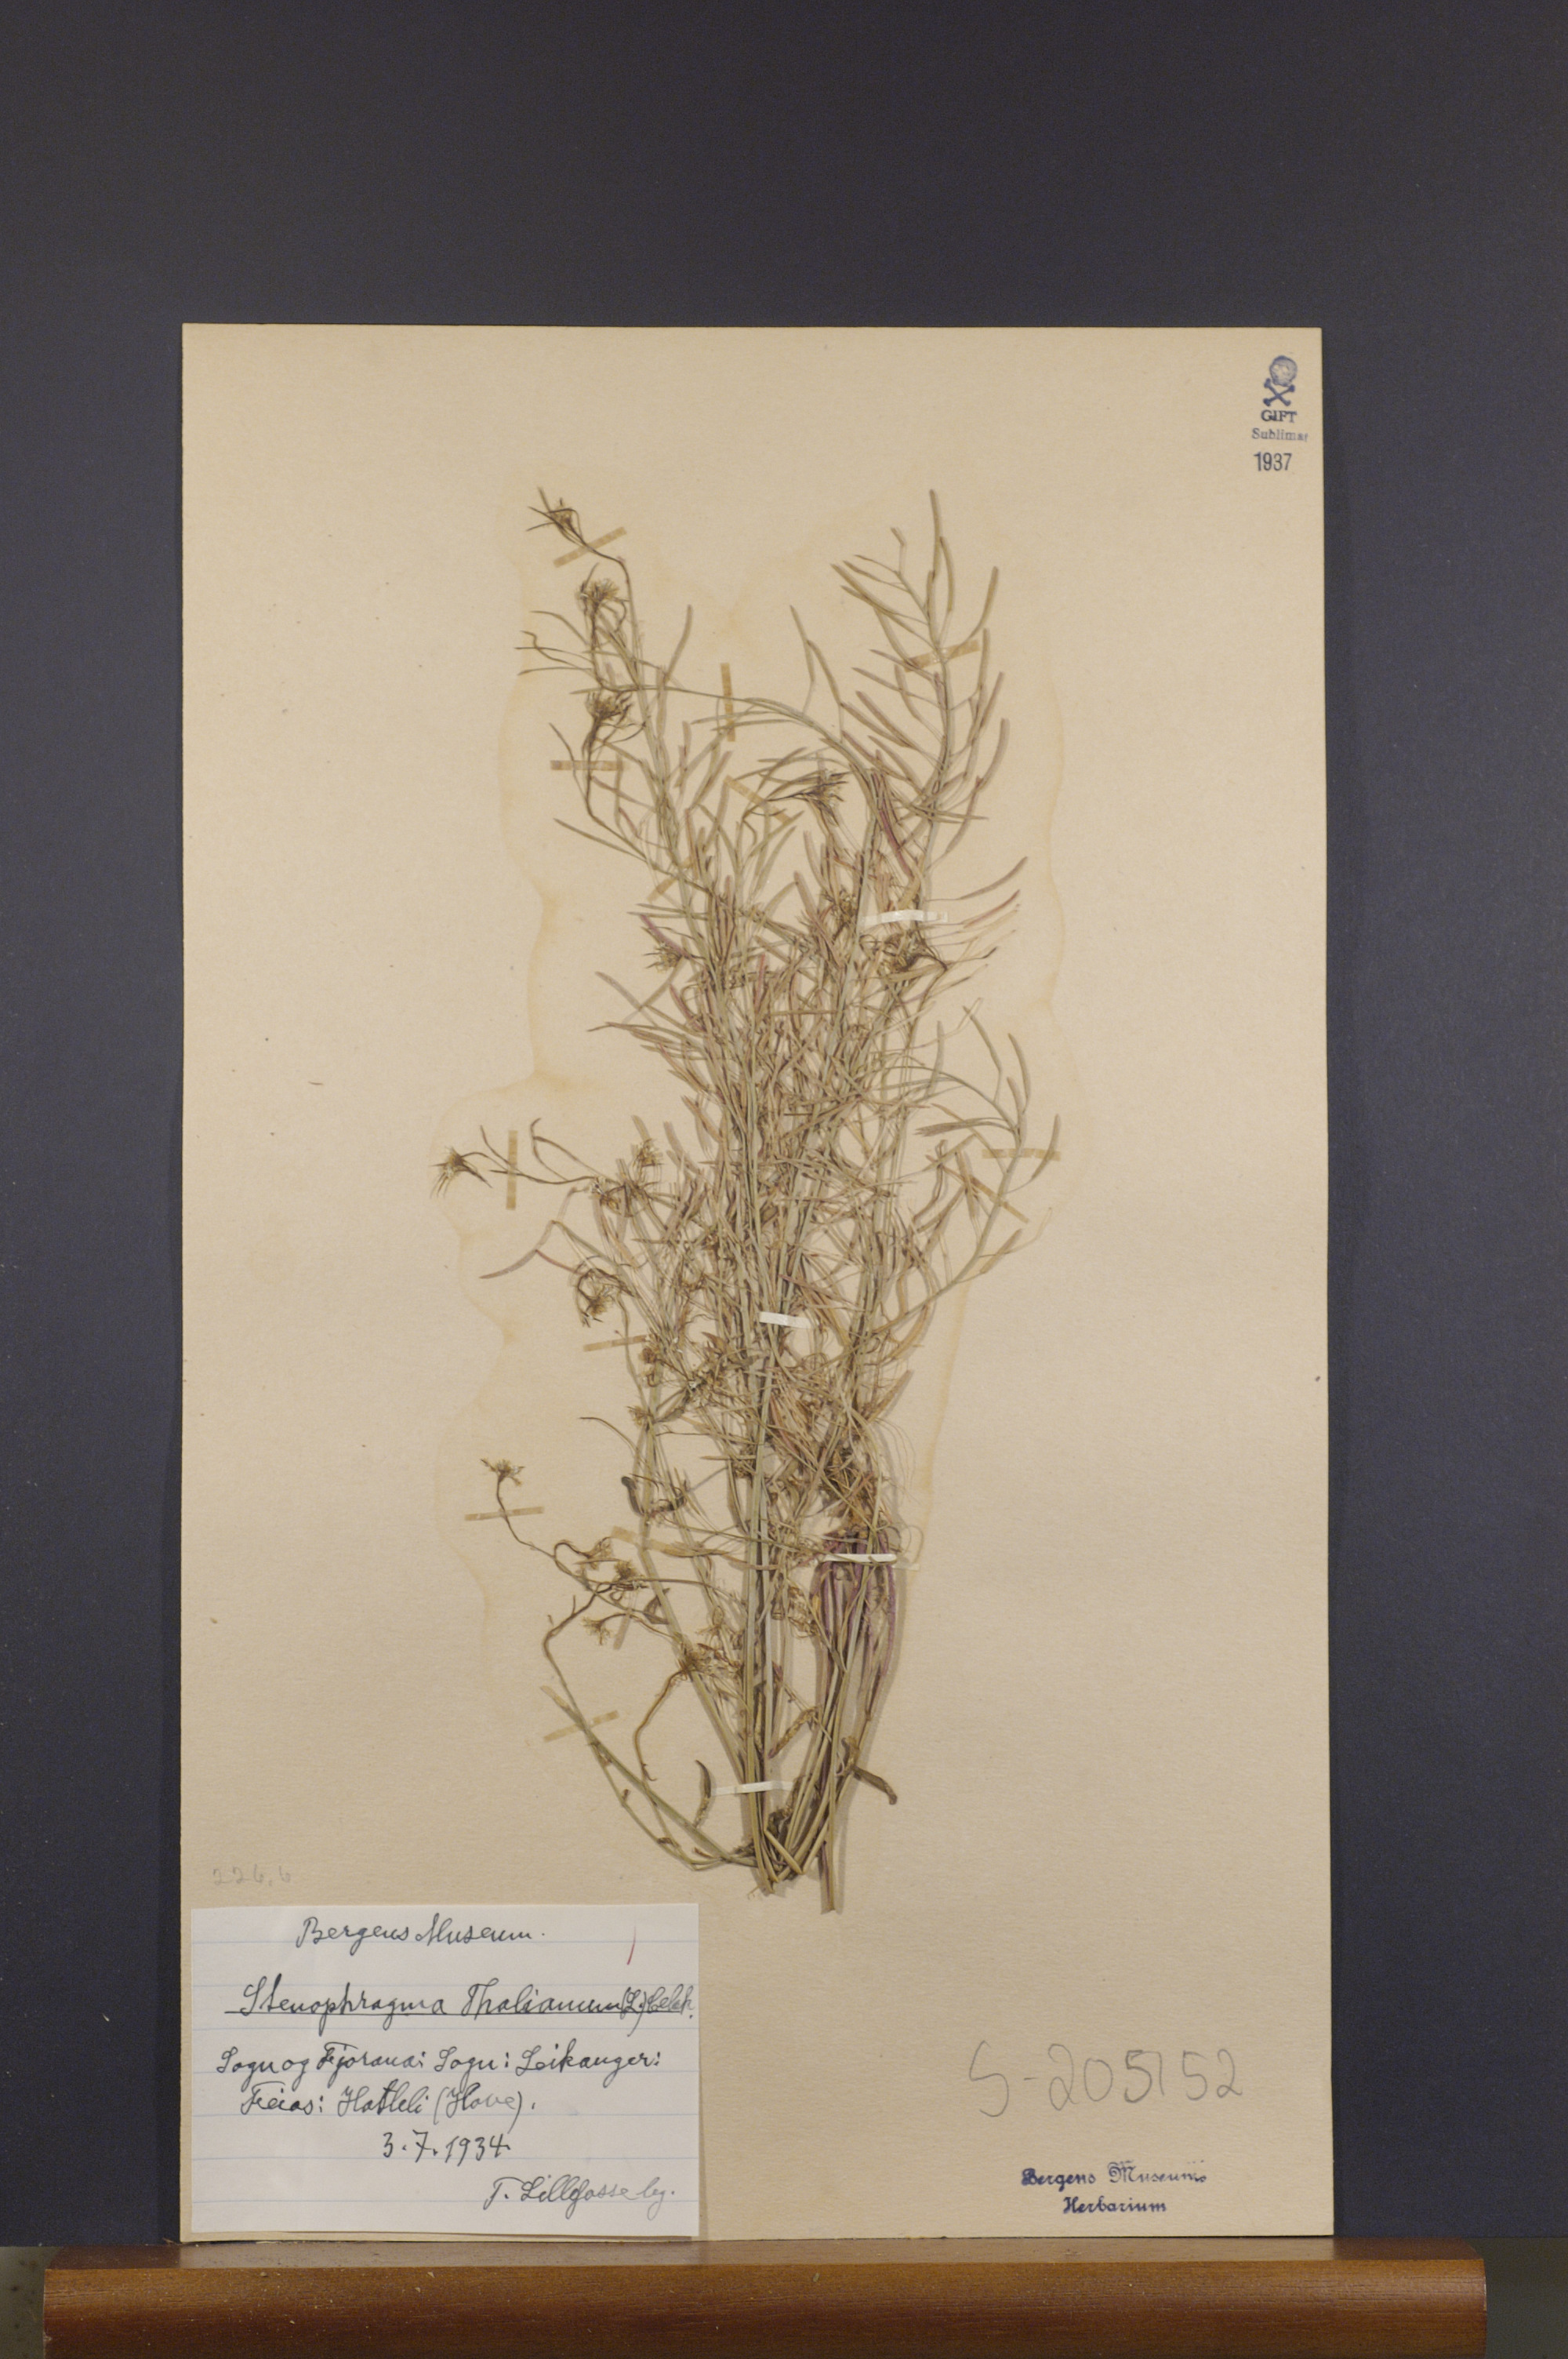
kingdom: Plantae
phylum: Tracheophyta
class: Magnoliopsida
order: Brassicales
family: Brassicaceae
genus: Arabidopsis
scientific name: Arabidopsis thaliana
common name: Thale cress
